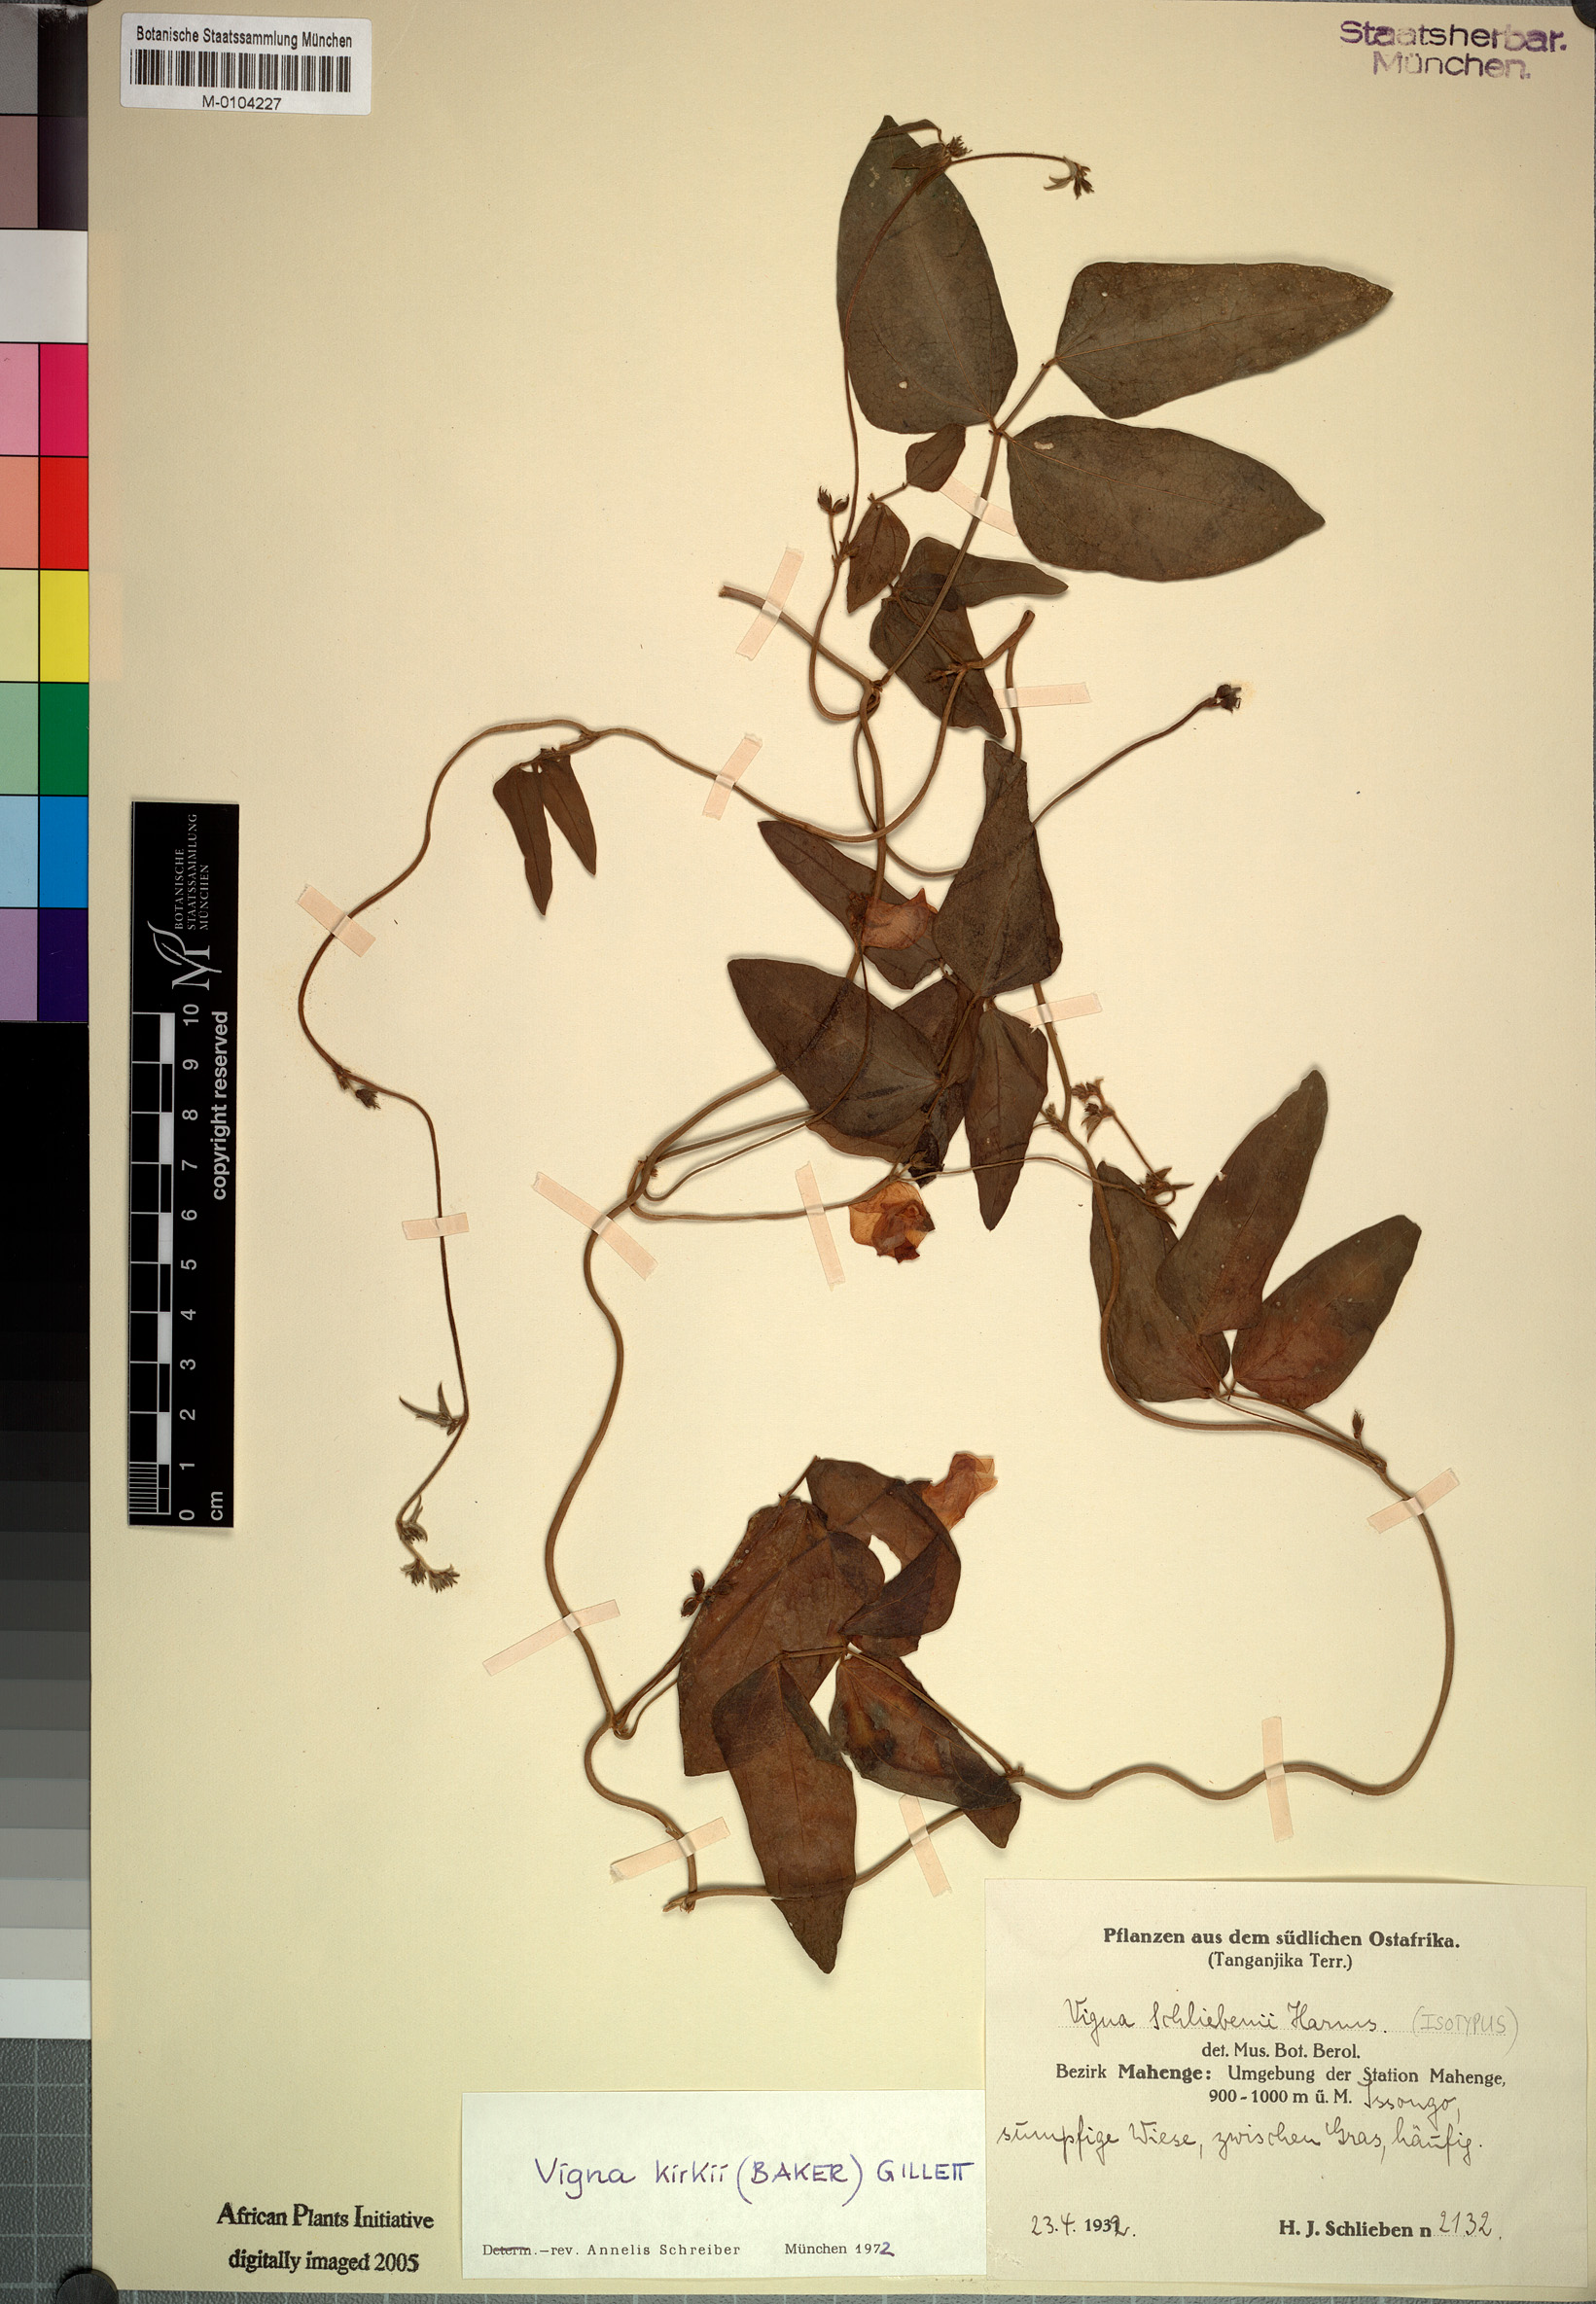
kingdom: Plantae
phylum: Tracheophyta
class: Magnoliopsida
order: Fabales
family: Fabaceae
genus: Vigna
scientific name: Vigna kirkii
